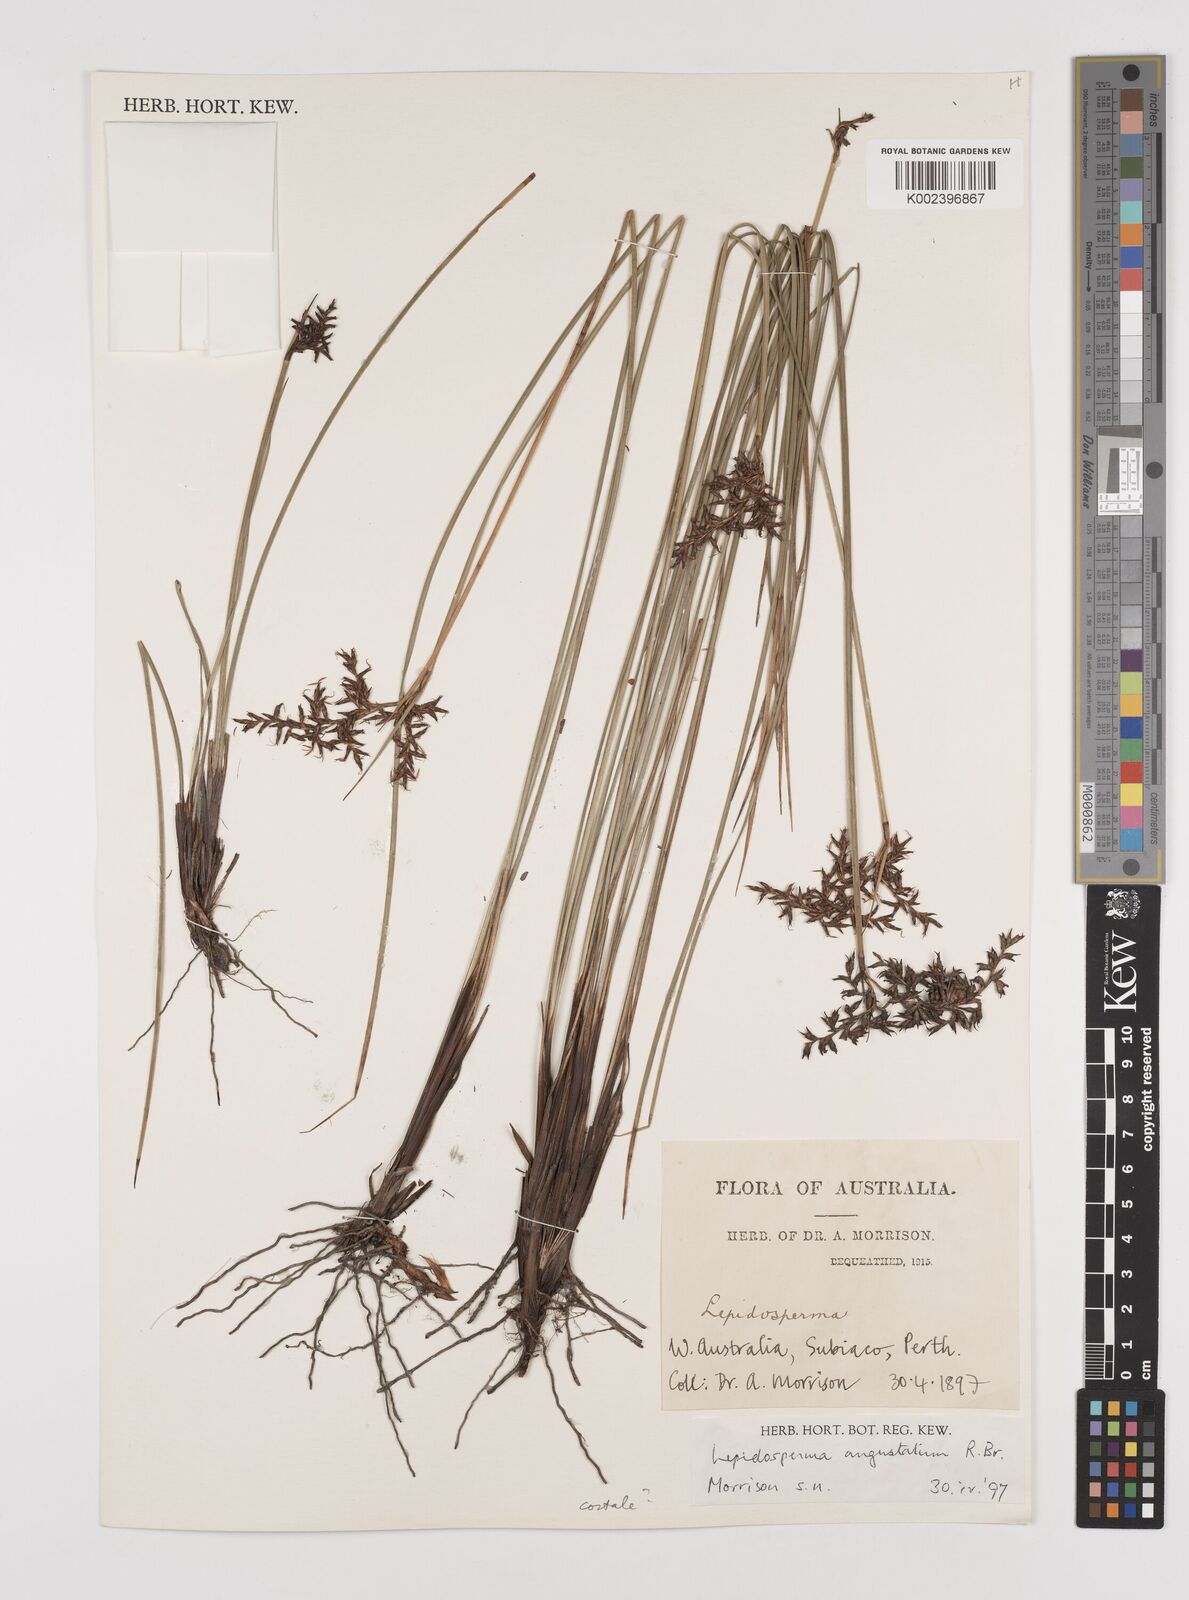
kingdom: Plantae
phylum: Tracheophyta
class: Liliopsida
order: Poales
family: Cyperaceae
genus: Lepidosperma
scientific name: Lepidosperma costale
